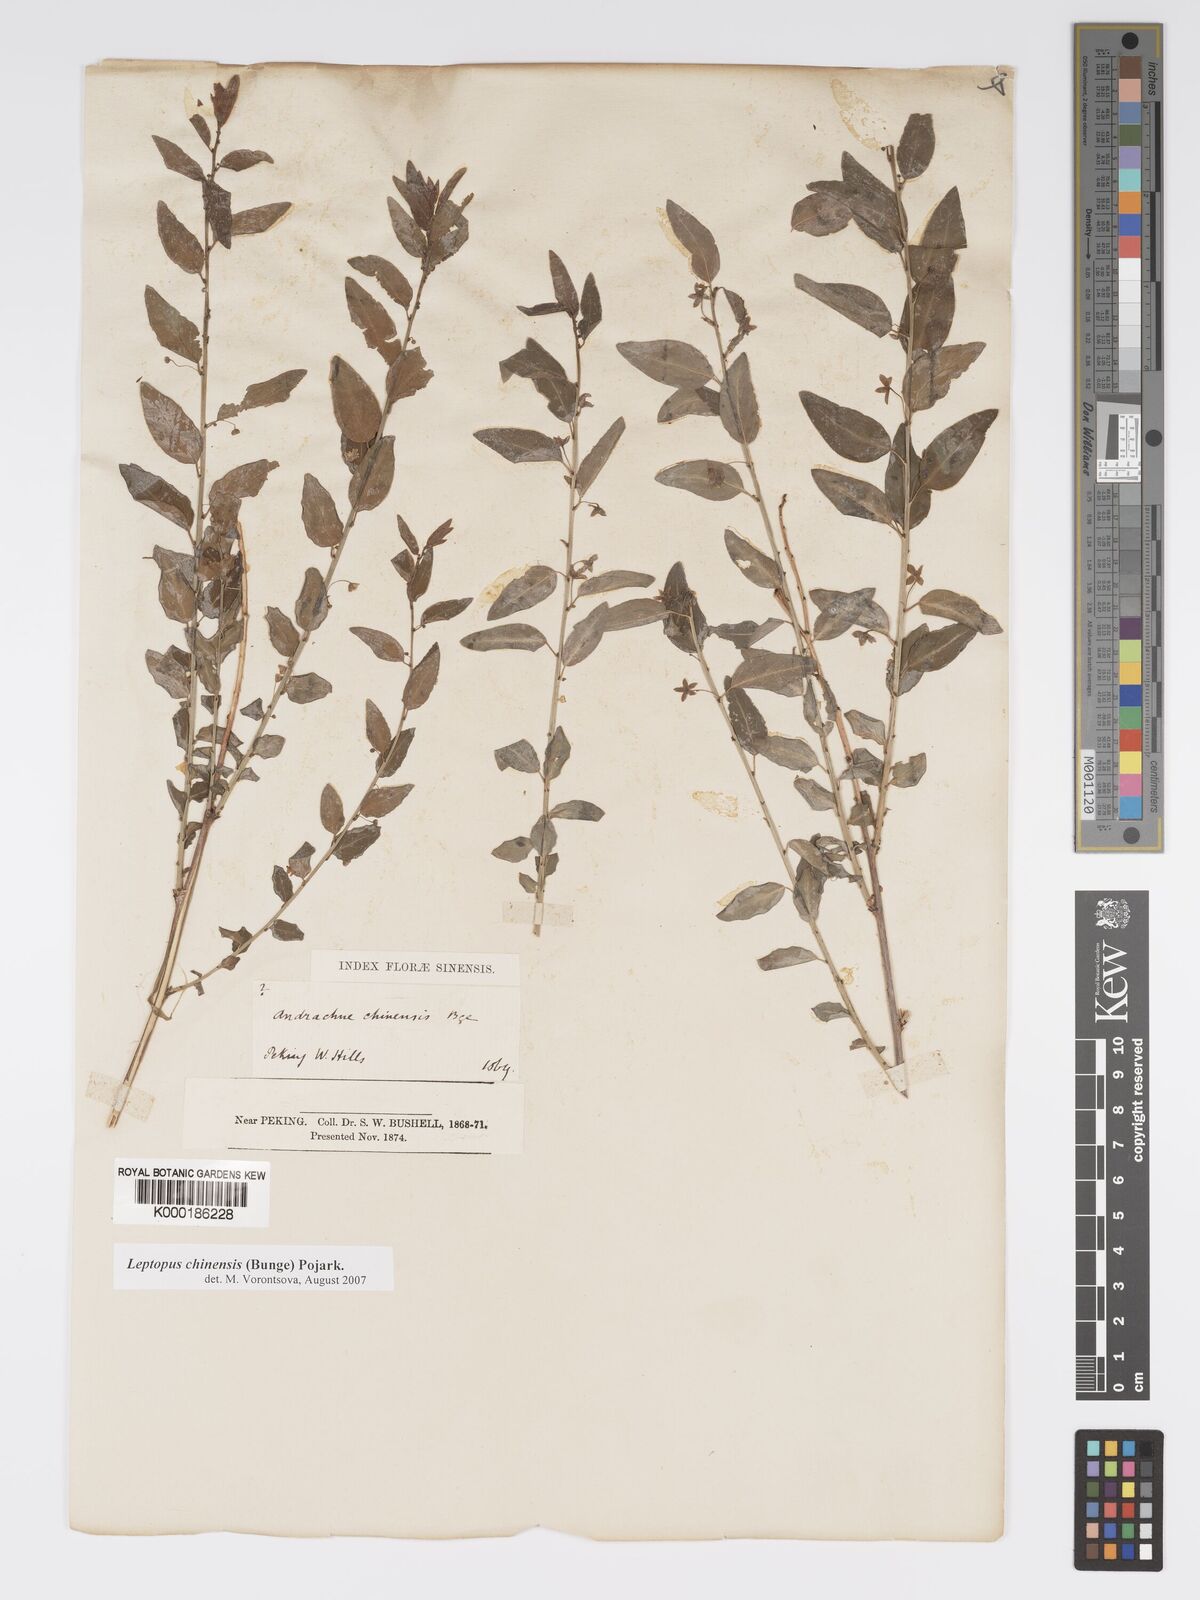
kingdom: Plantae
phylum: Tracheophyta
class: Magnoliopsida
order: Malpighiales
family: Phyllanthaceae
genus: Leptopus
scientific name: Leptopus chinensis
